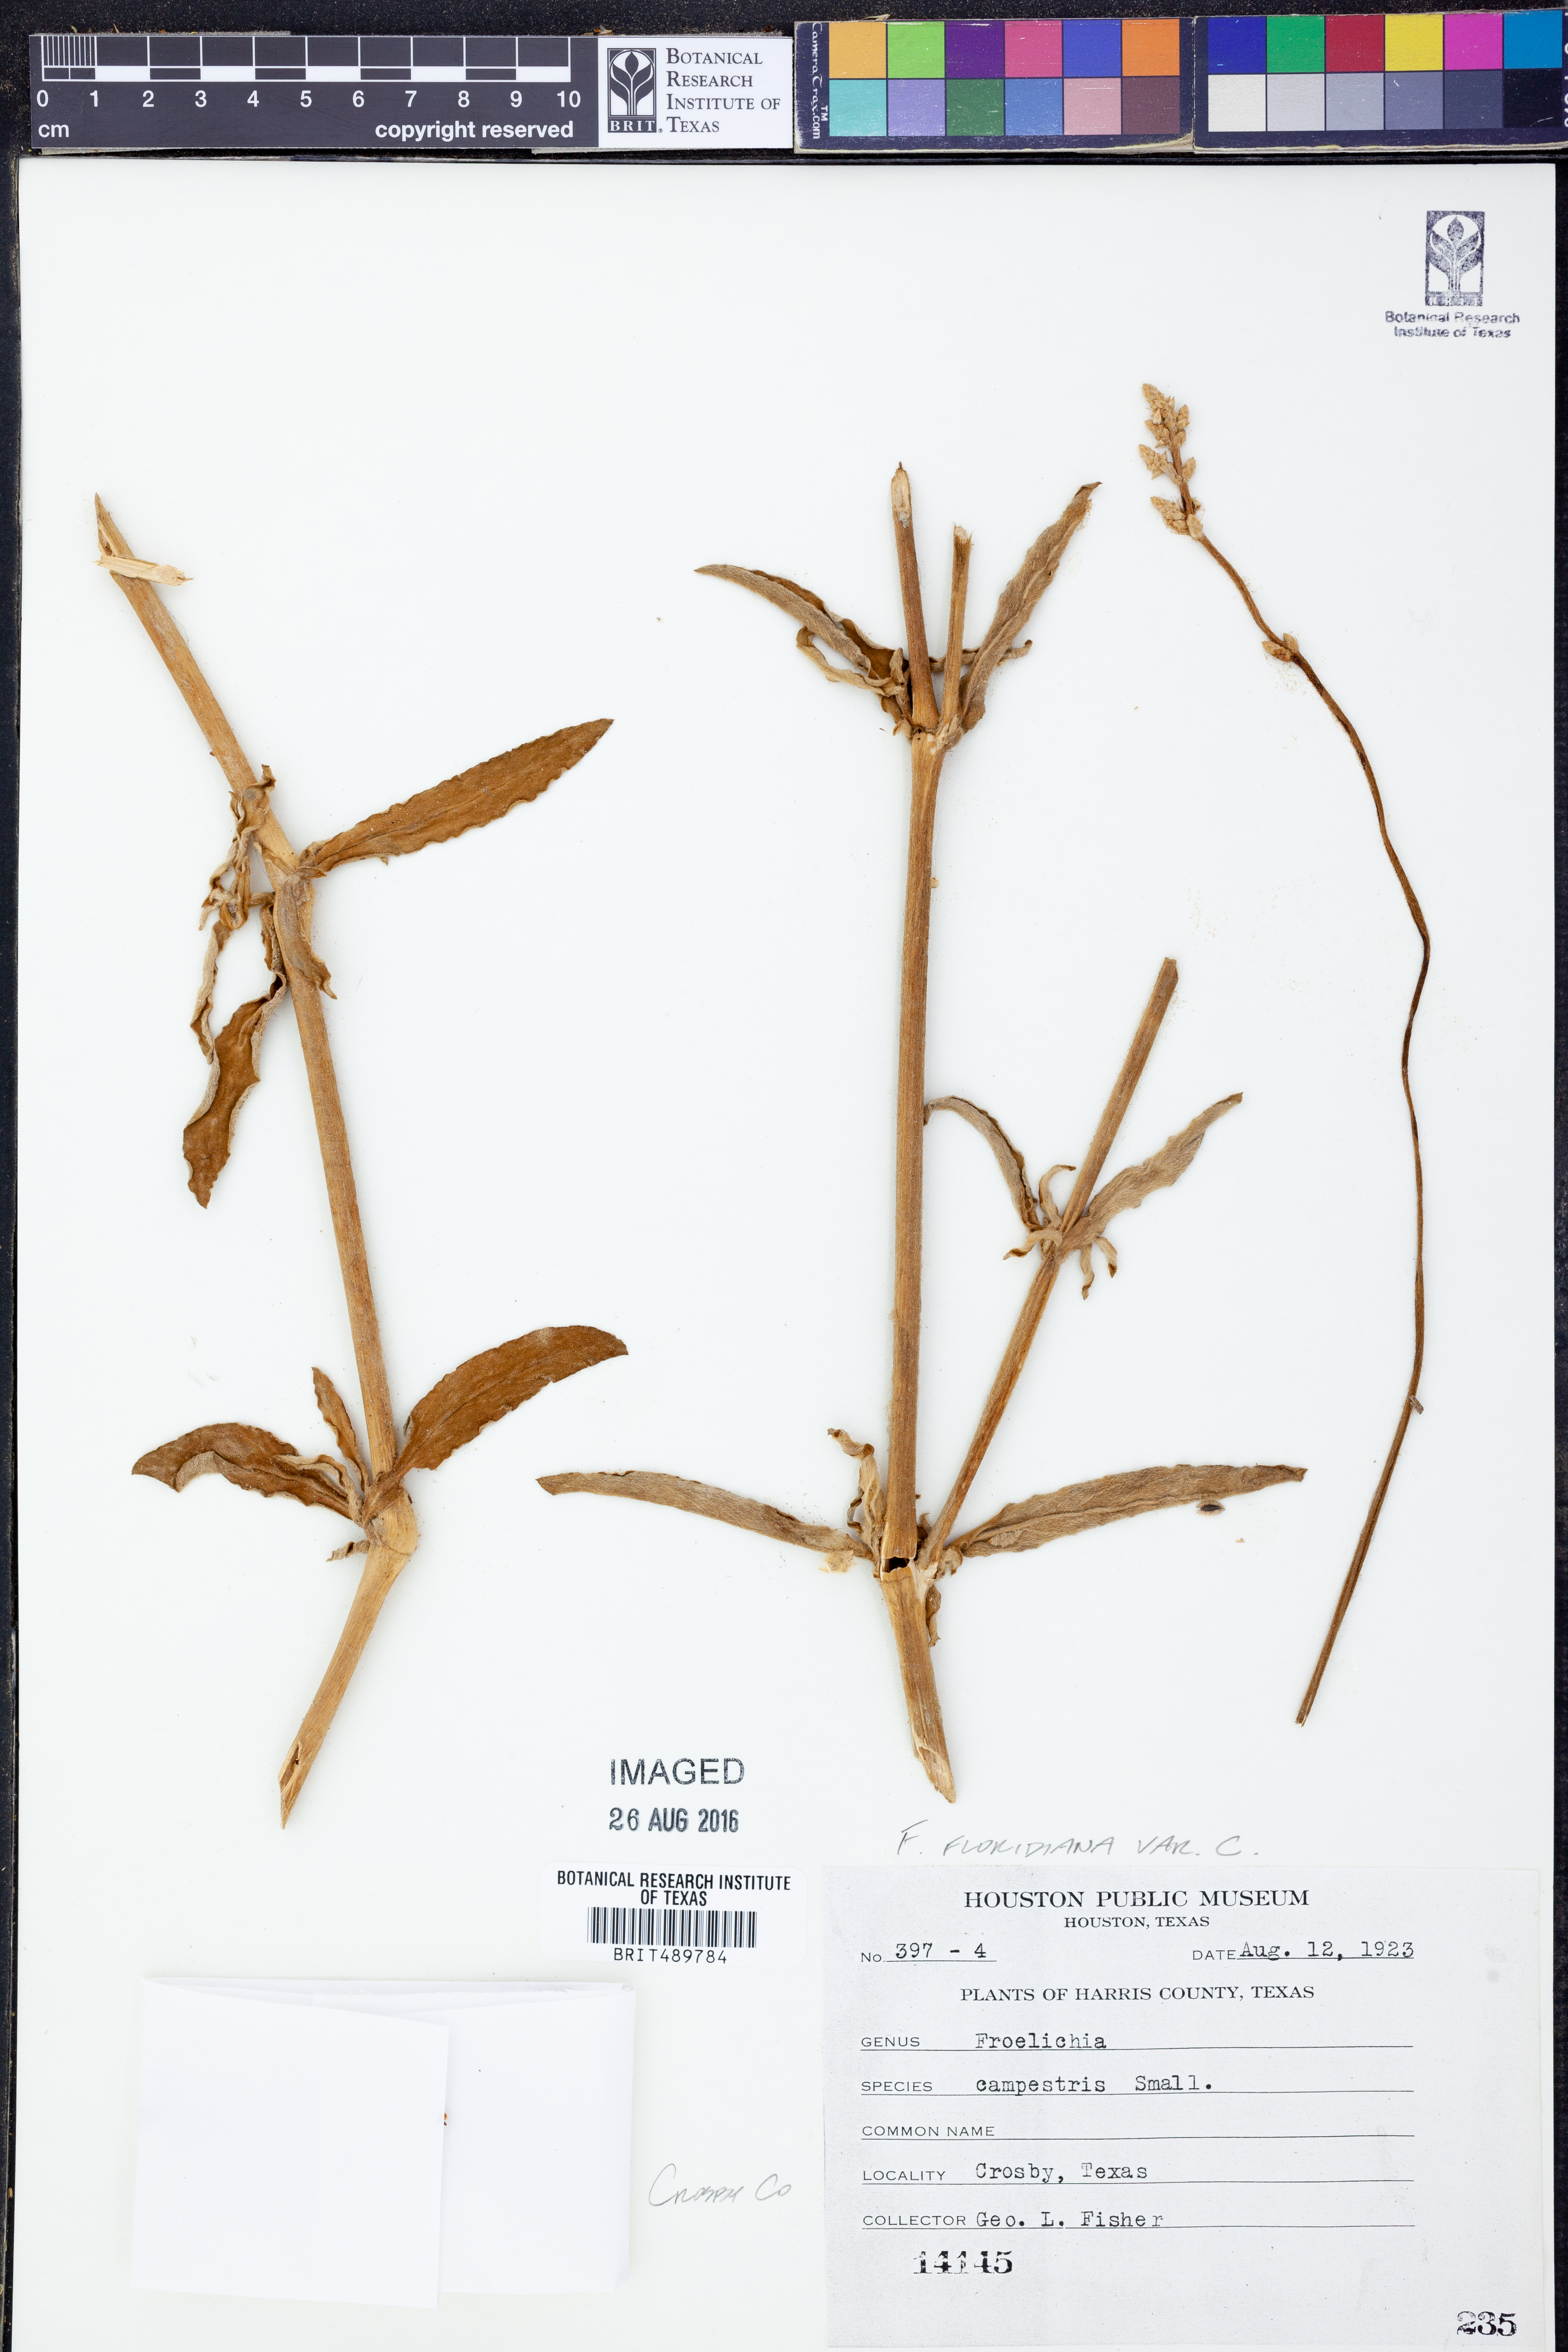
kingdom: Plantae
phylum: Tracheophyta
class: Magnoliopsida
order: Caryophyllales
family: Amaranthaceae
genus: Froelichia
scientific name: Froelichia floridana
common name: Florida snake-cotton
